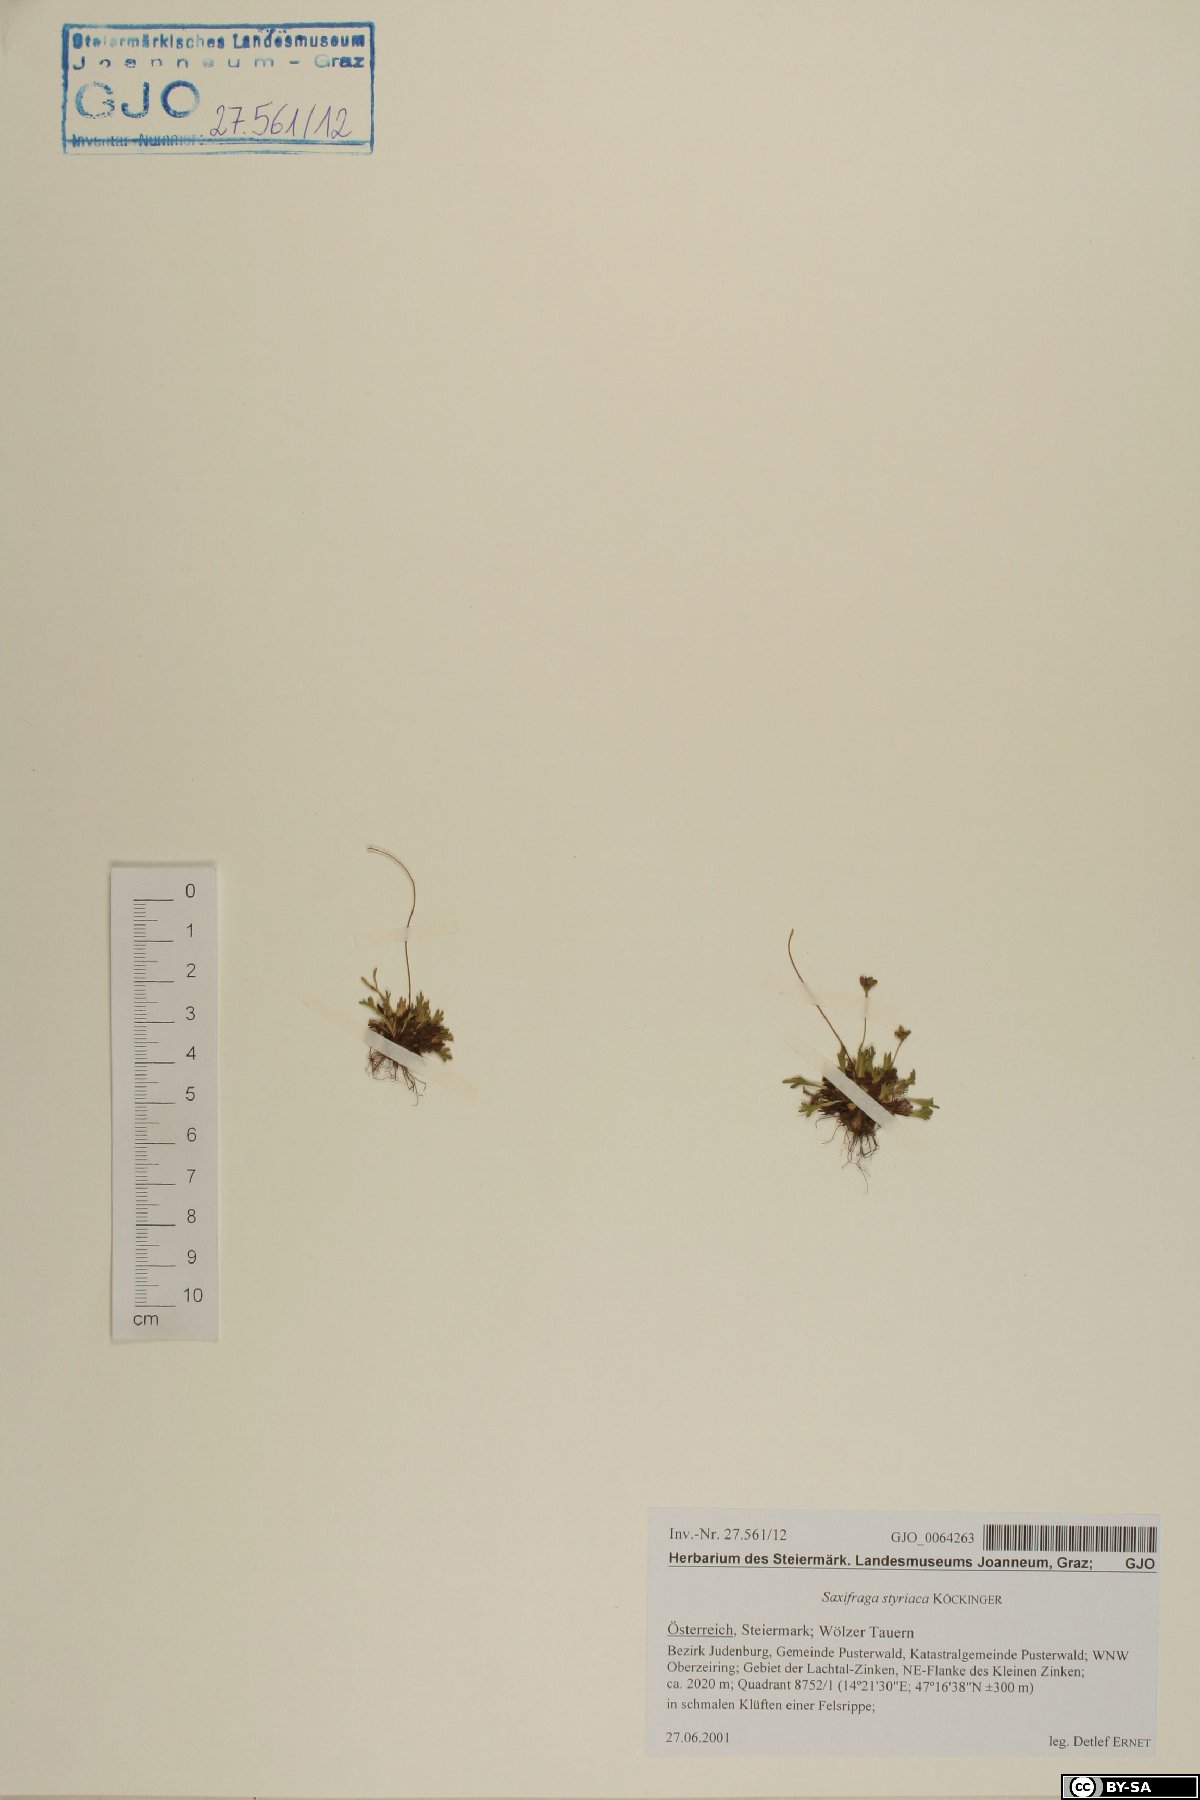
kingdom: Plantae
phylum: Tracheophyta
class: Magnoliopsida
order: Saxifragales
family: Saxifragaceae
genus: Saxifraga
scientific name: Saxifraga styriaca
